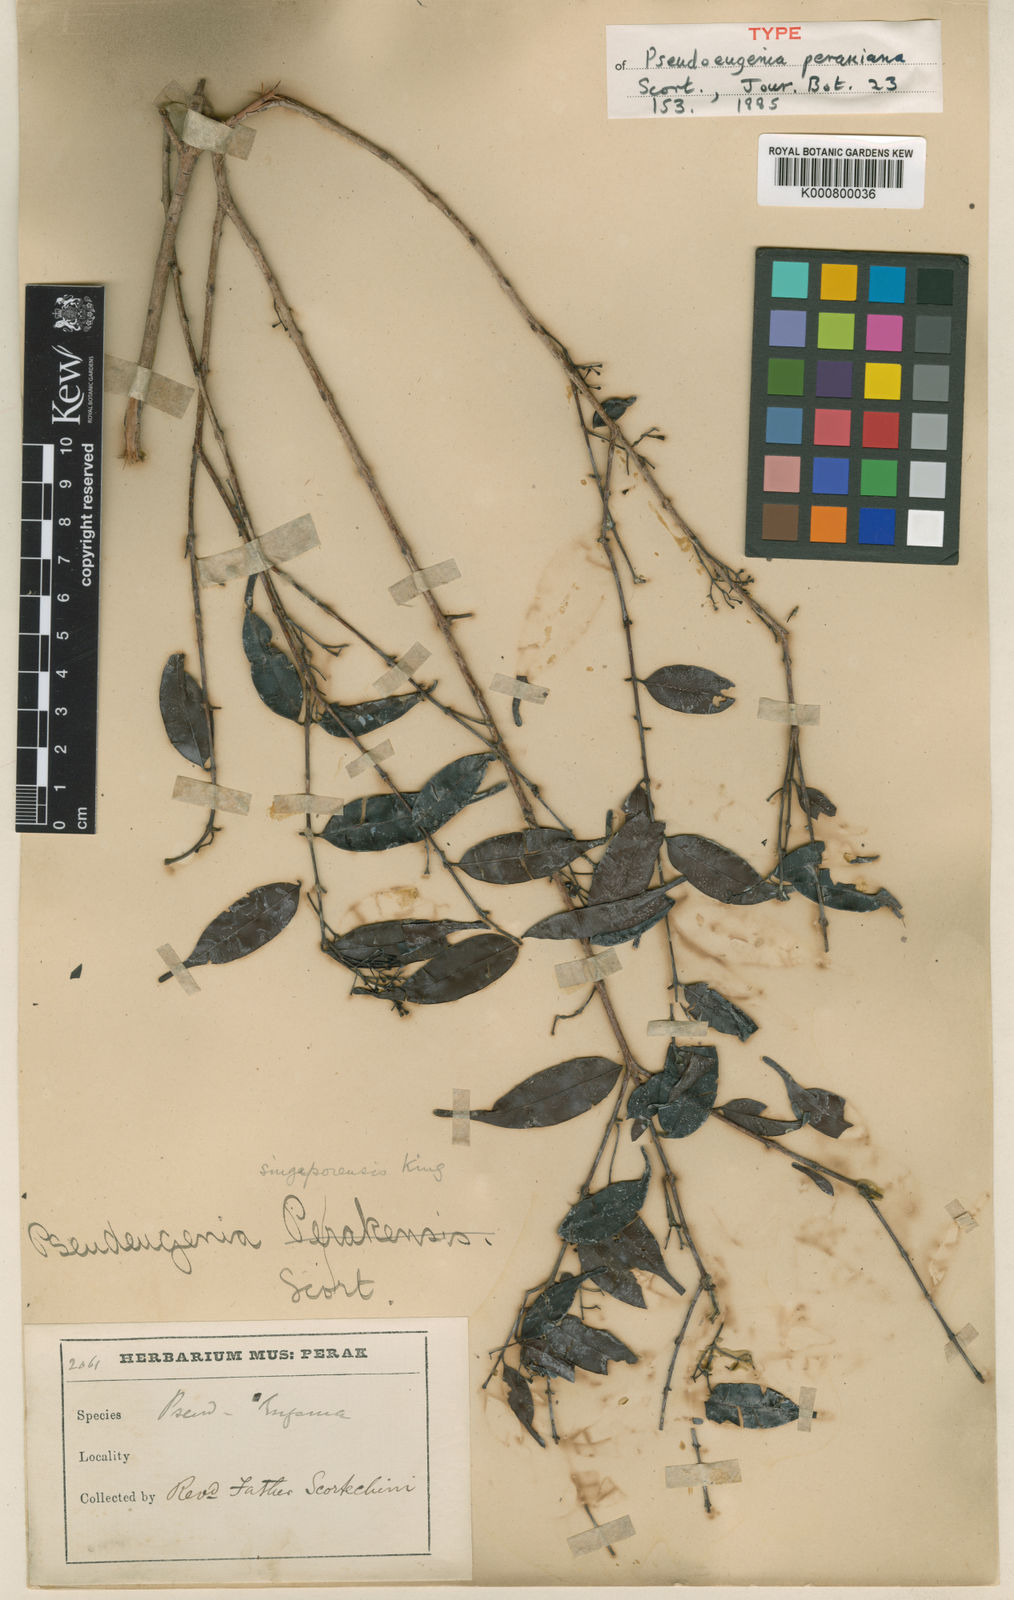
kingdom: Plantae
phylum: Tracheophyta
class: Magnoliopsida
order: Myrtales
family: Myrtaceae
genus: Syzygium
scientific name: Syzygium racemosum
